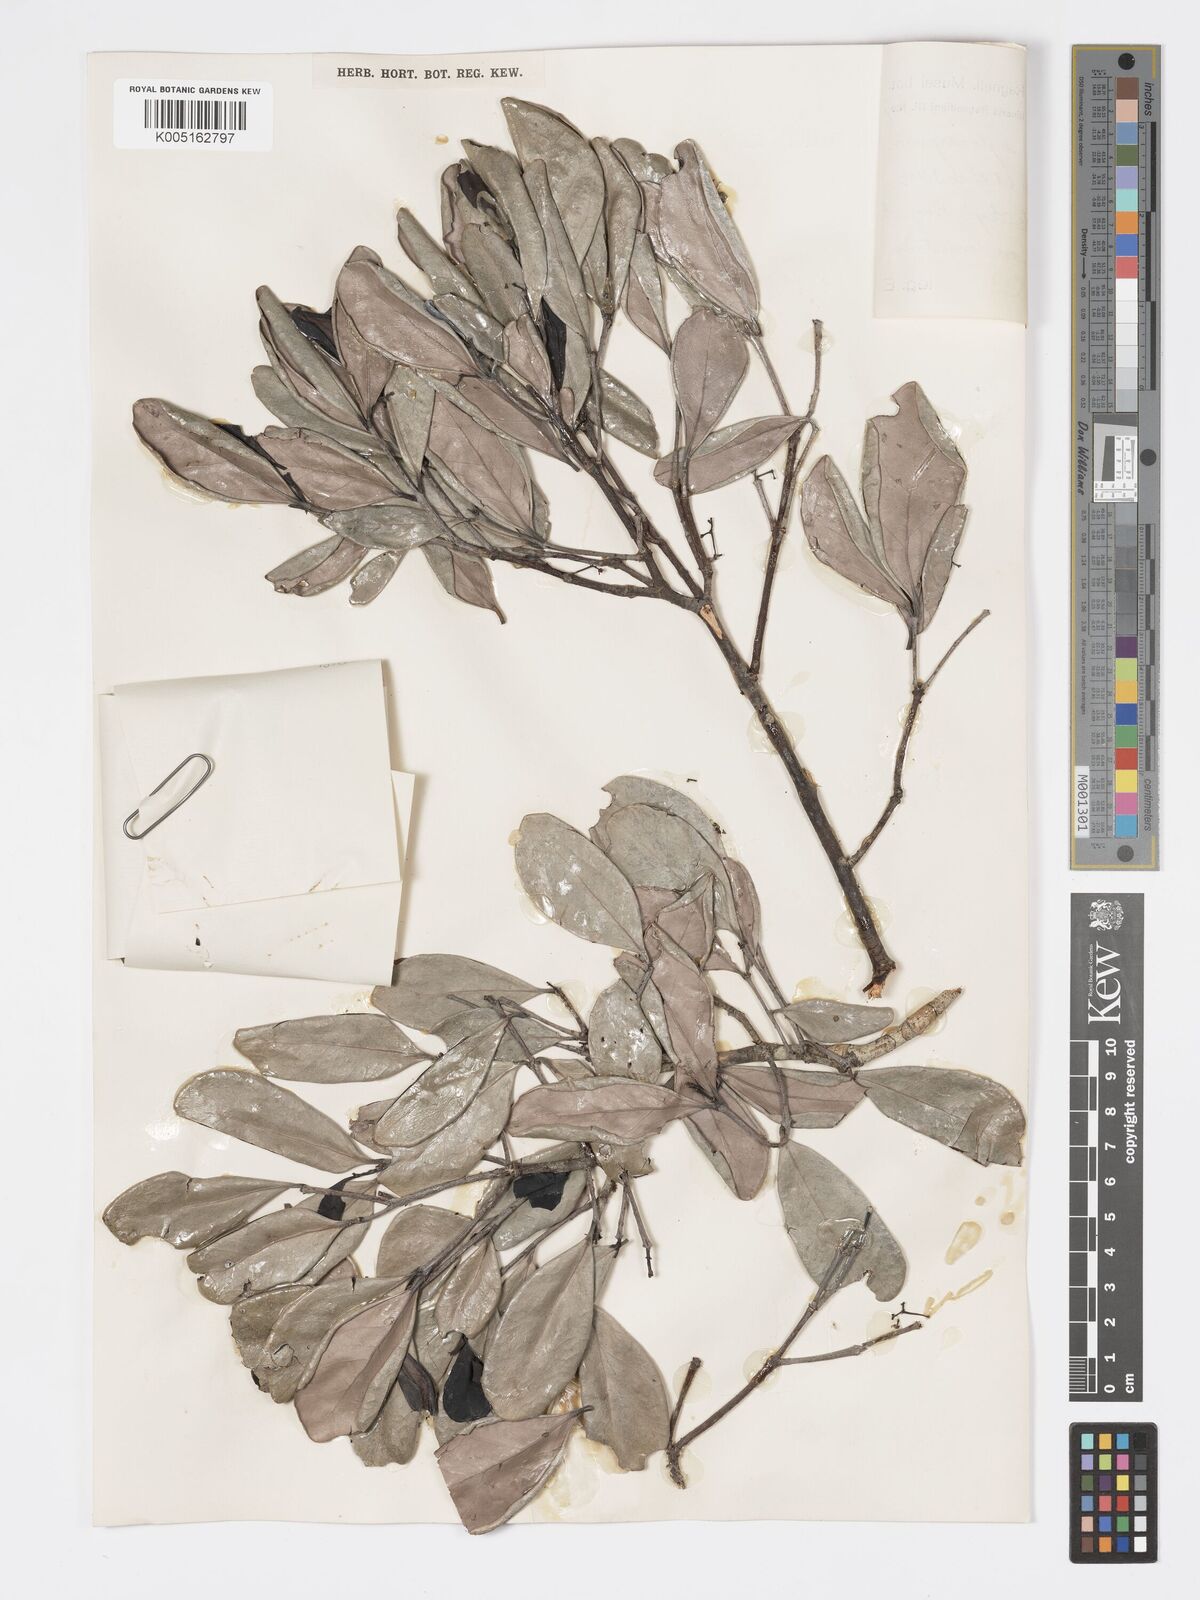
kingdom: Plantae
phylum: Tracheophyta
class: Magnoliopsida
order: Celastrales
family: Celastraceae
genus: Elaeodendron
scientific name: Elaeodendron xylocarpum
